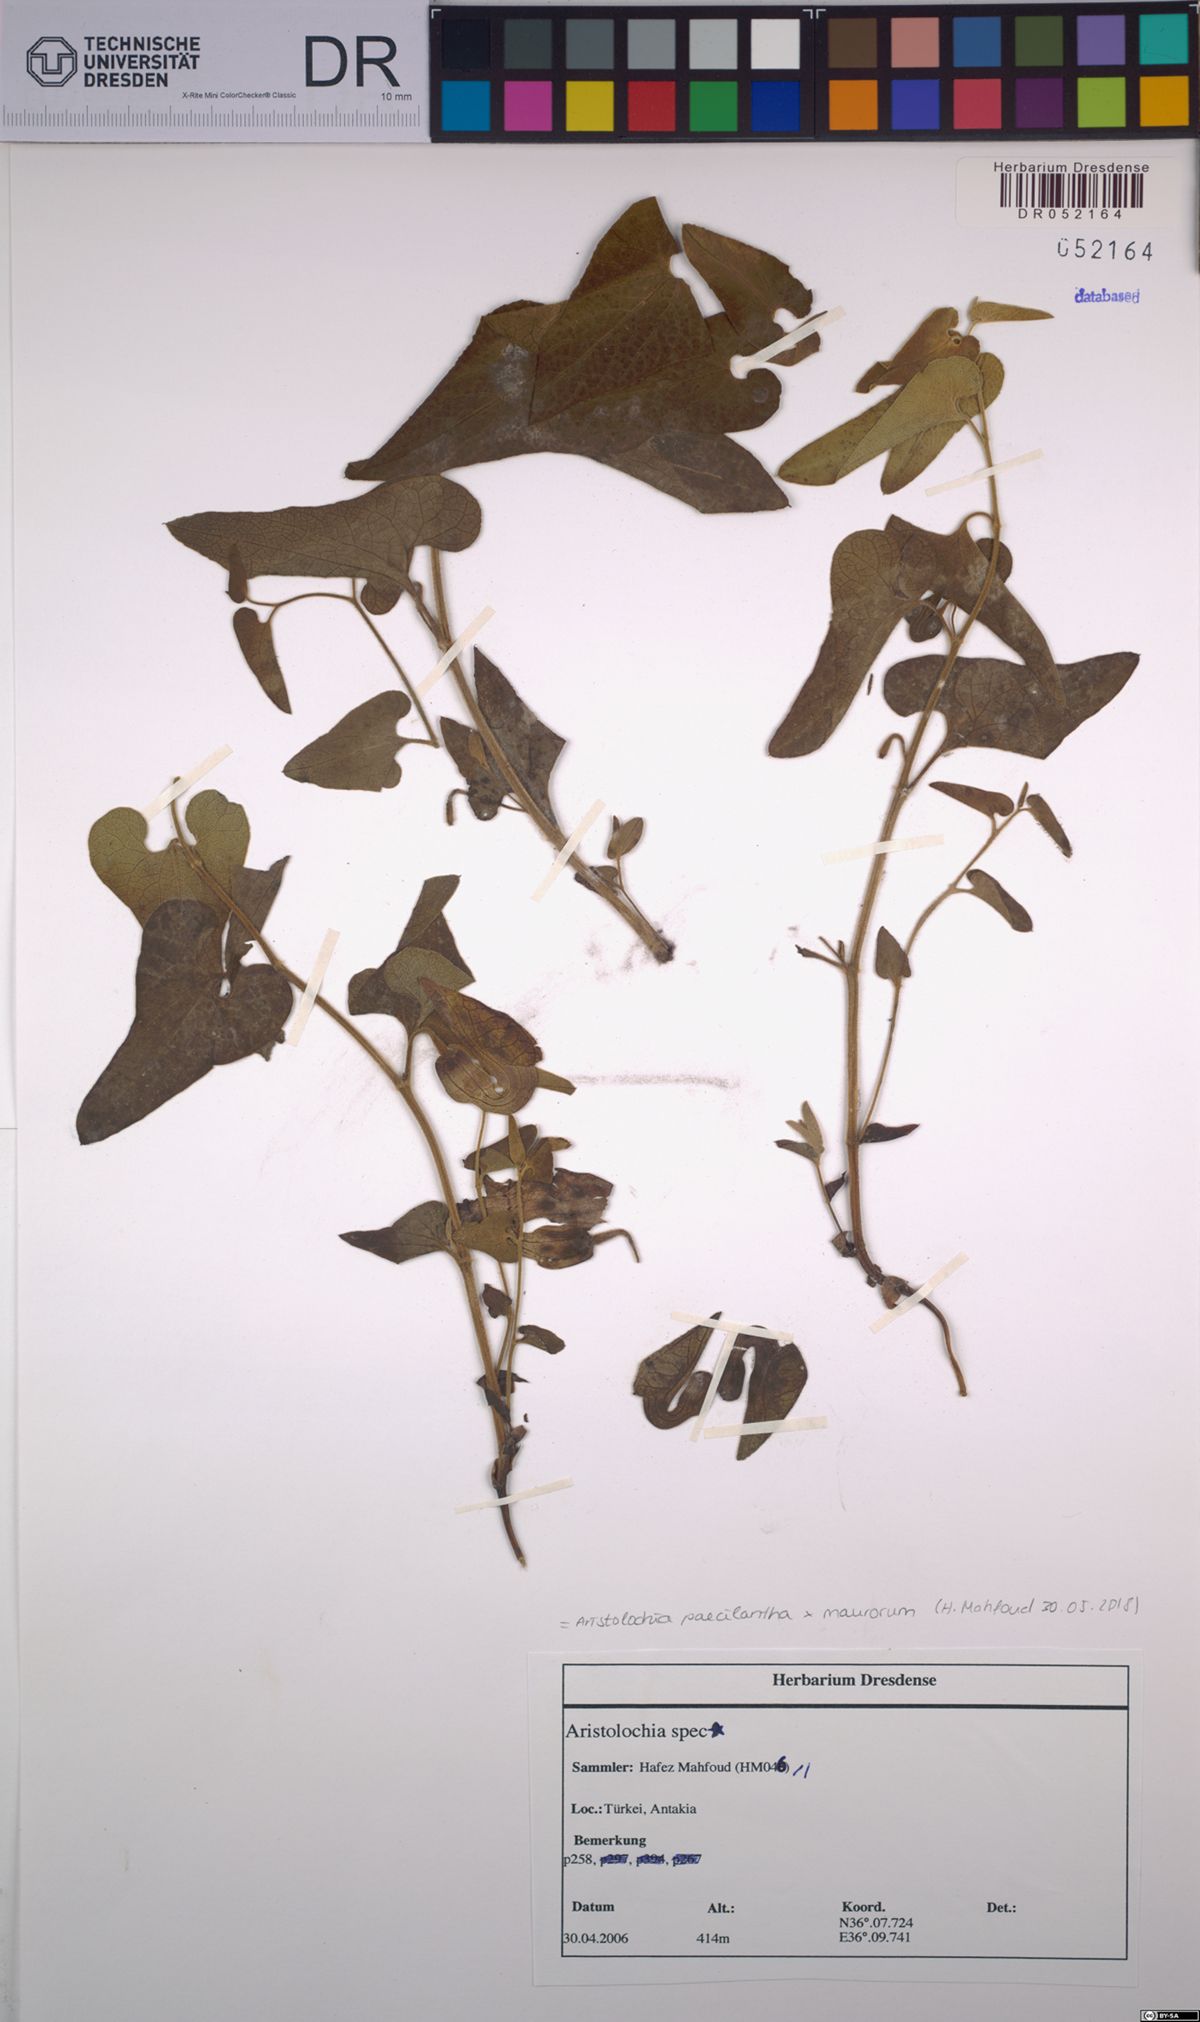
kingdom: Plantae
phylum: Tracheophyta
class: Magnoliopsida
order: Piperales
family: Aristolochiaceae
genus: Aristolochia
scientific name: Aristolochia paecilantha
